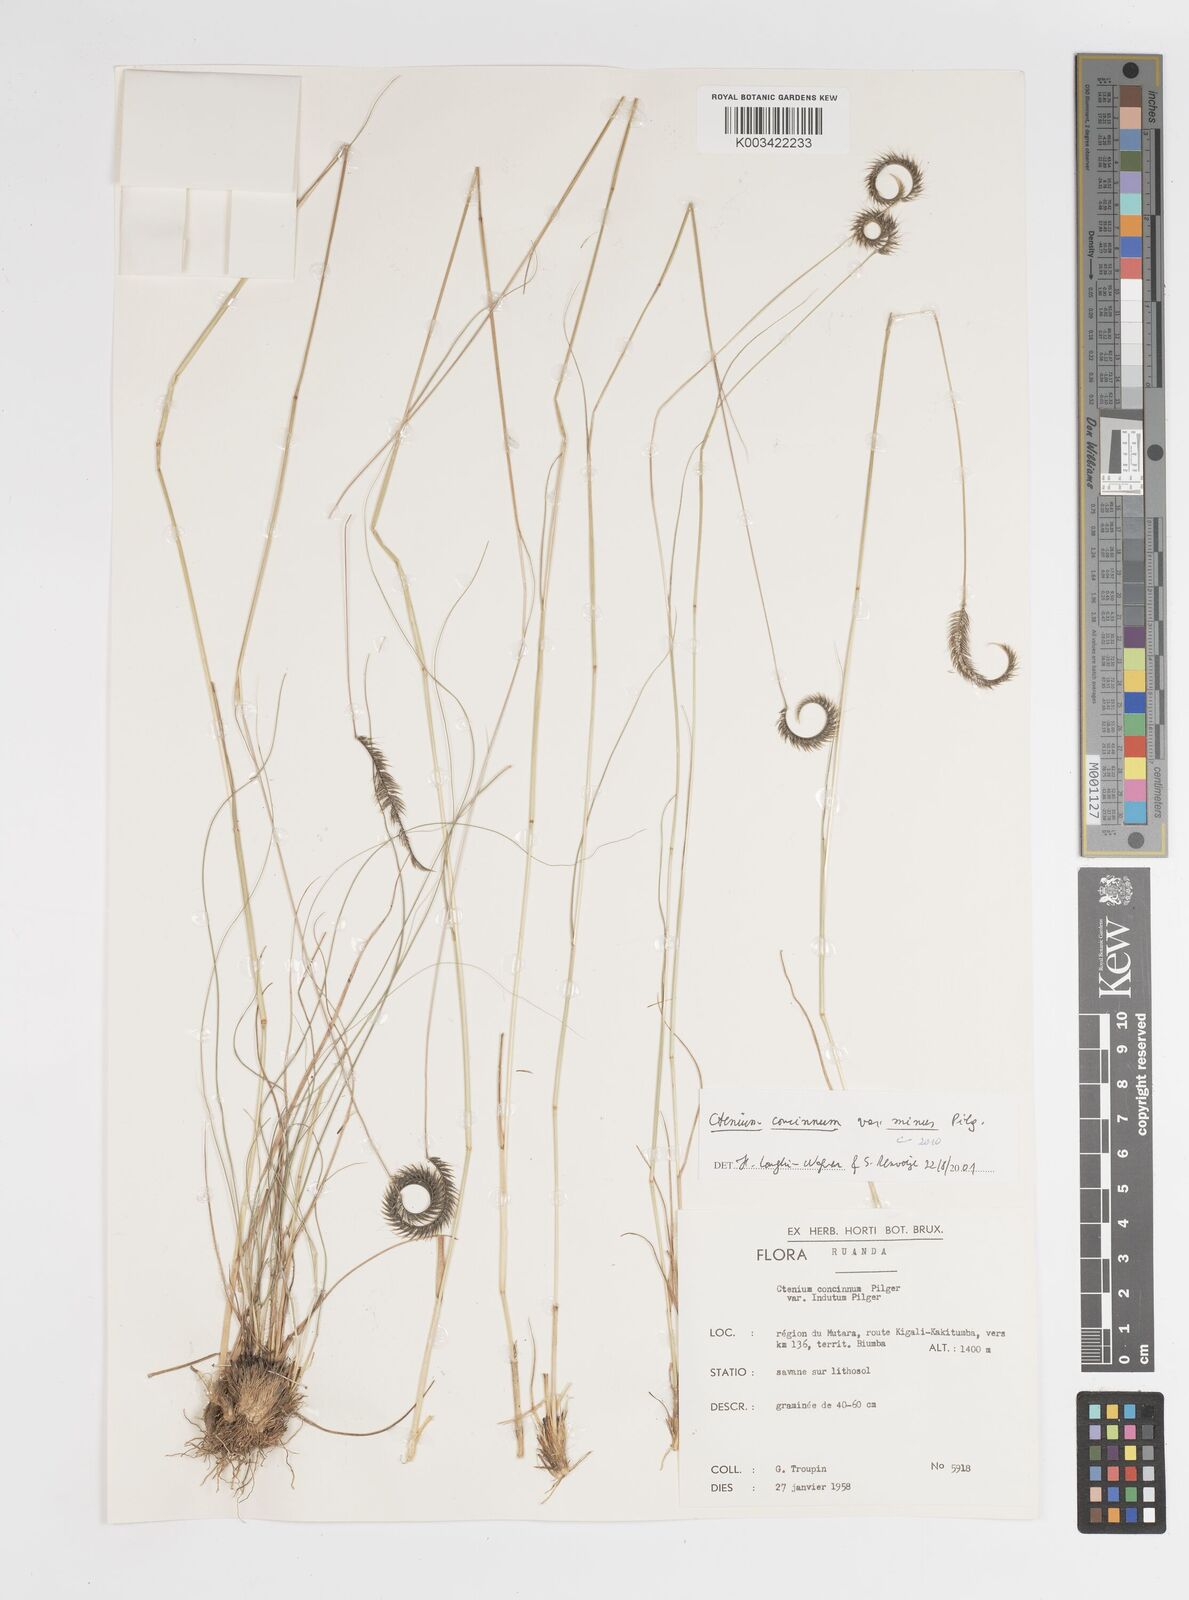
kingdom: Plantae
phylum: Tracheophyta
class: Liliopsida
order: Poales
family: Poaceae
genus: Ctenium
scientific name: Ctenium concinnum
